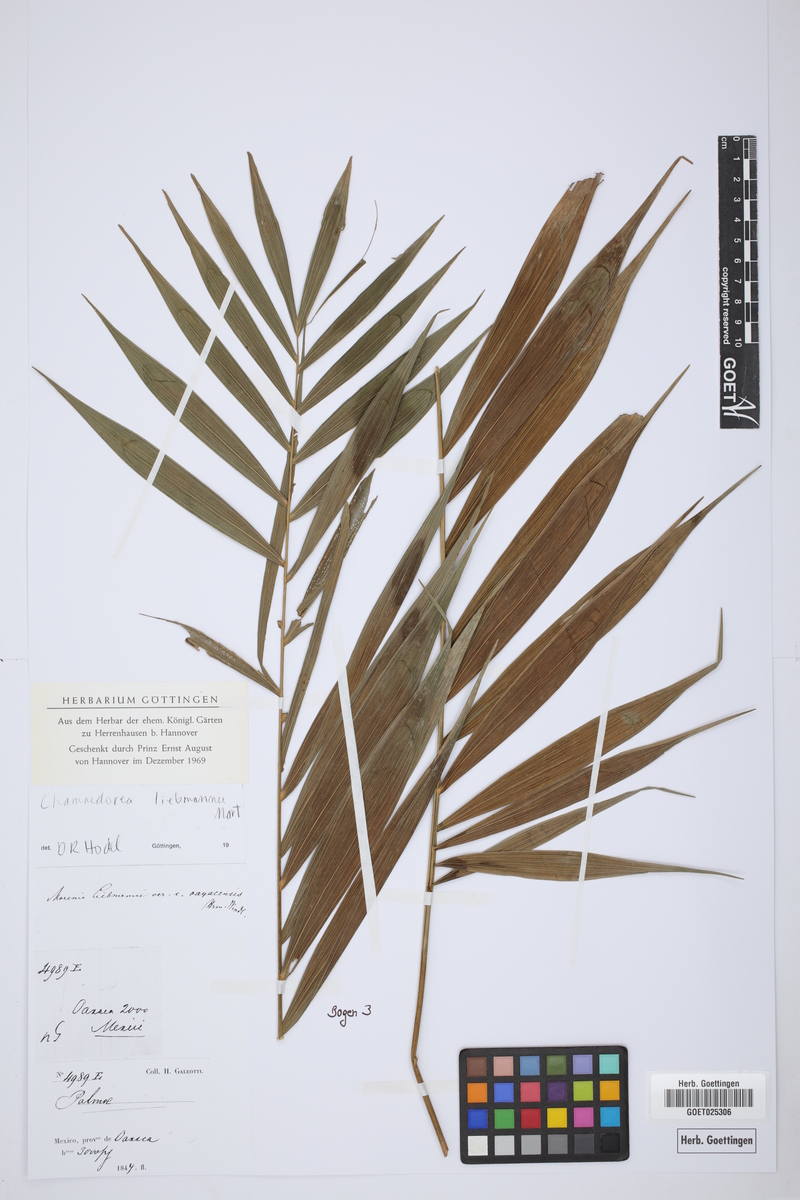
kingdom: Plantae
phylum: Tracheophyta
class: Liliopsida
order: Arecales
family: Arecaceae
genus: Chamaedorea
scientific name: Chamaedorea liebmannii
